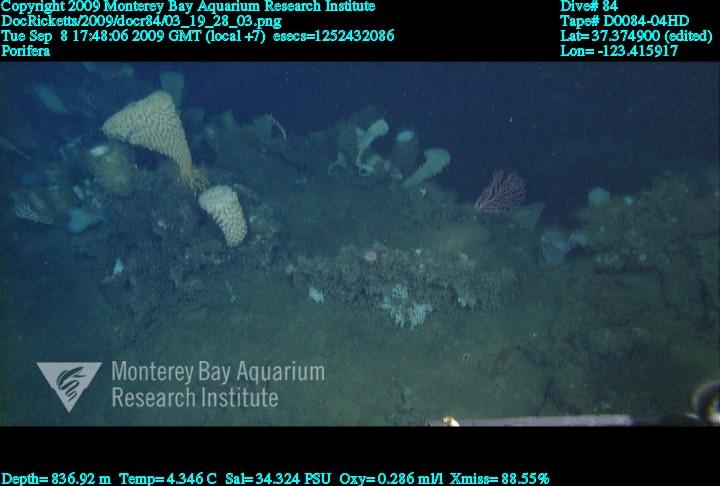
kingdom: Animalia
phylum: Porifera
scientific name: Porifera
